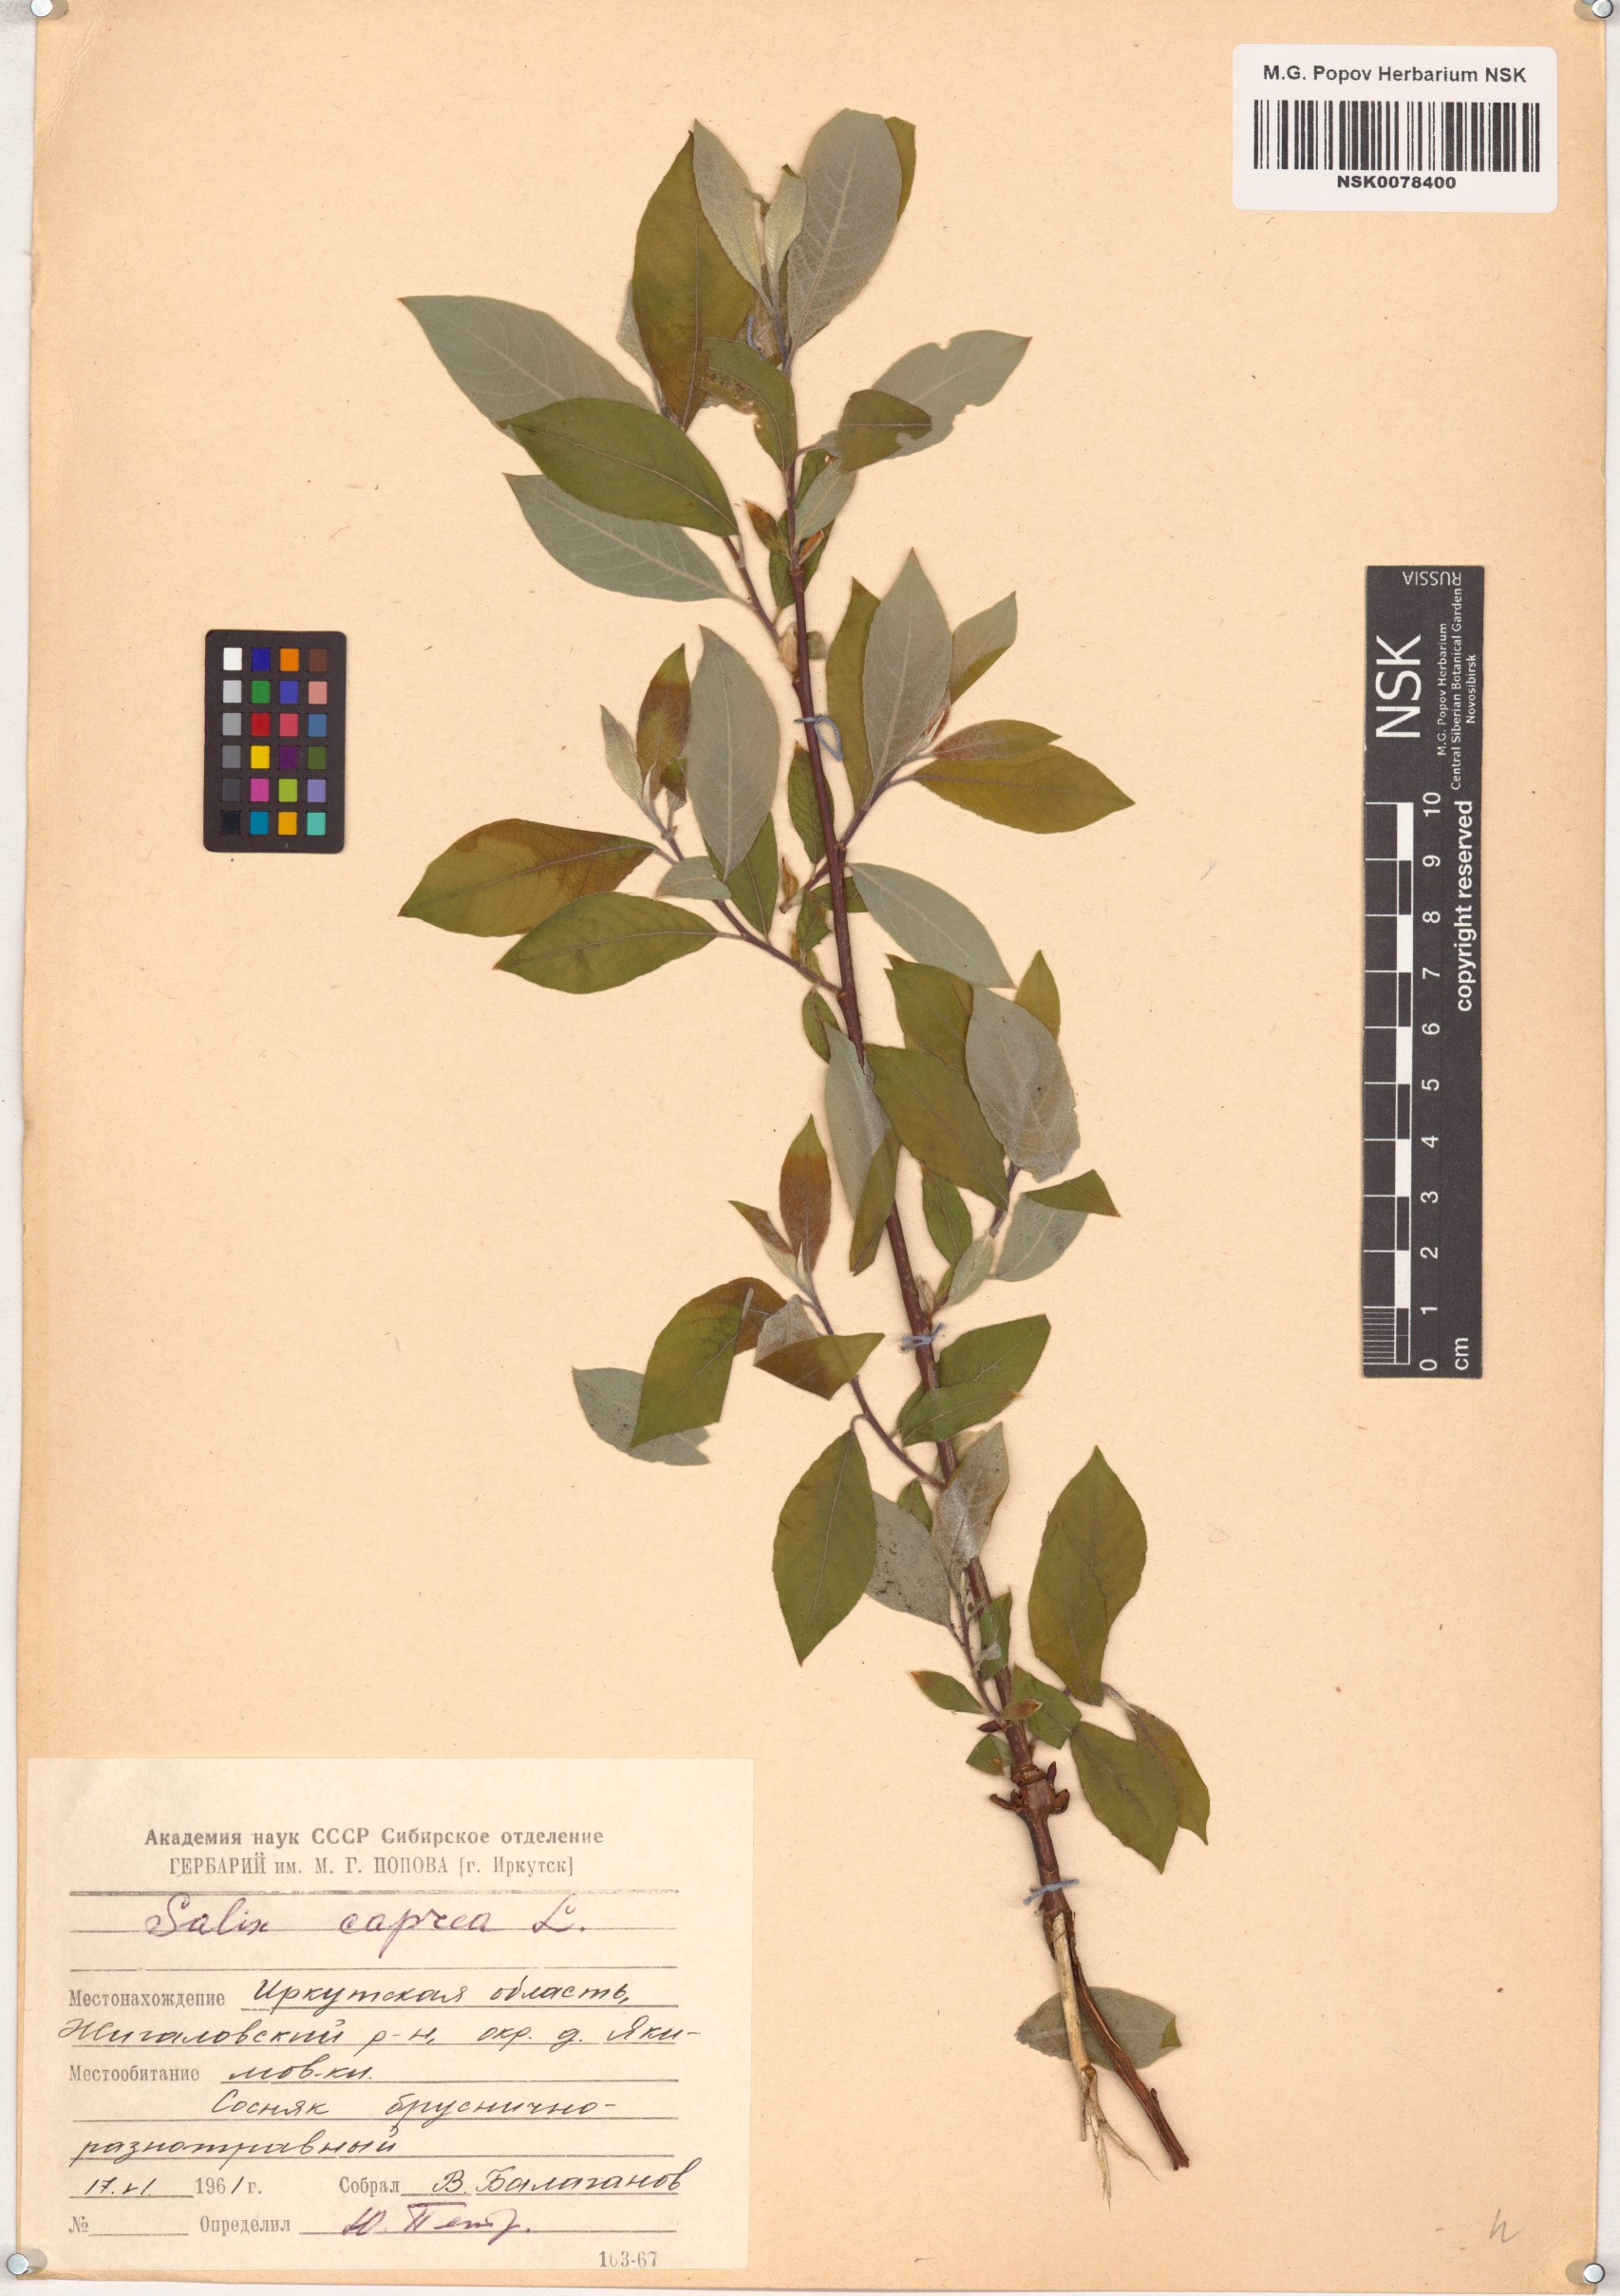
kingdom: Plantae
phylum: Tracheophyta
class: Magnoliopsida
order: Malpighiales
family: Salicaceae
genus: Salix
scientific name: Salix caprea
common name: Goat willow
